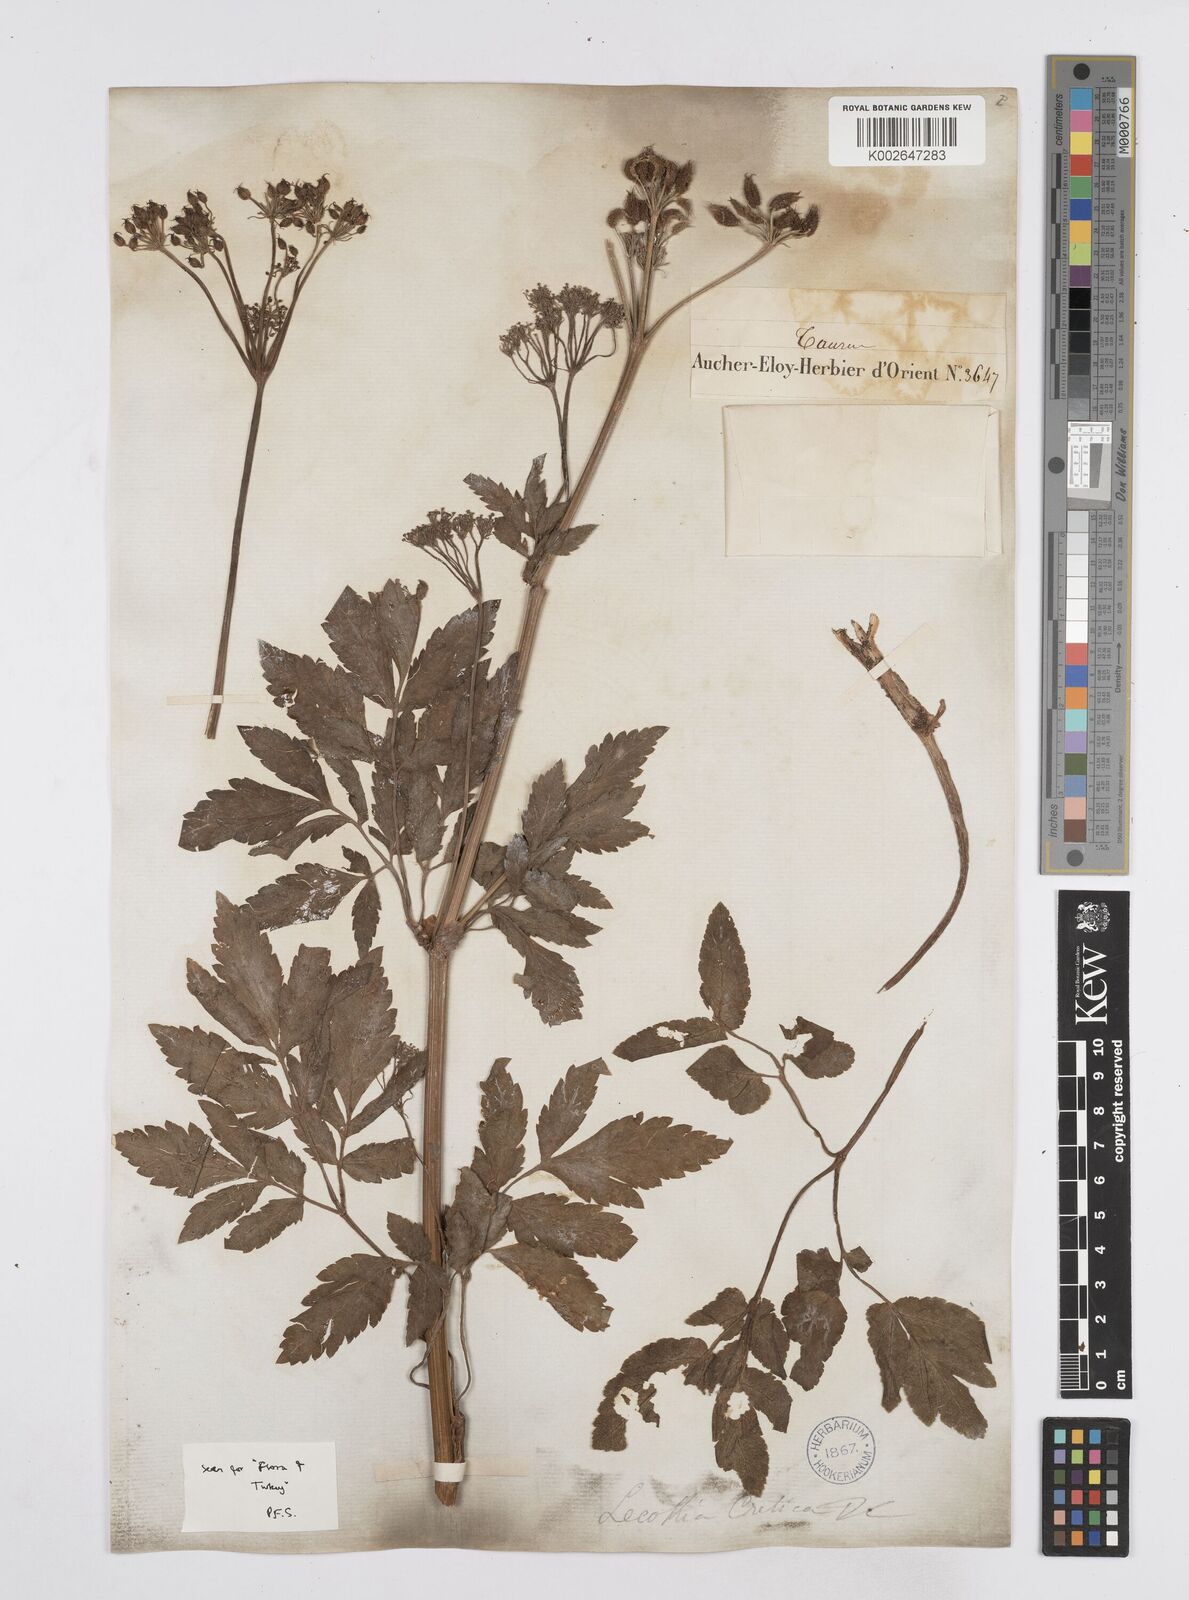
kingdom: Plantae
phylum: Tracheophyta
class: Magnoliopsida
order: Apiales
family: Apiaceae
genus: Lecokia
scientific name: Lecokia cretica
